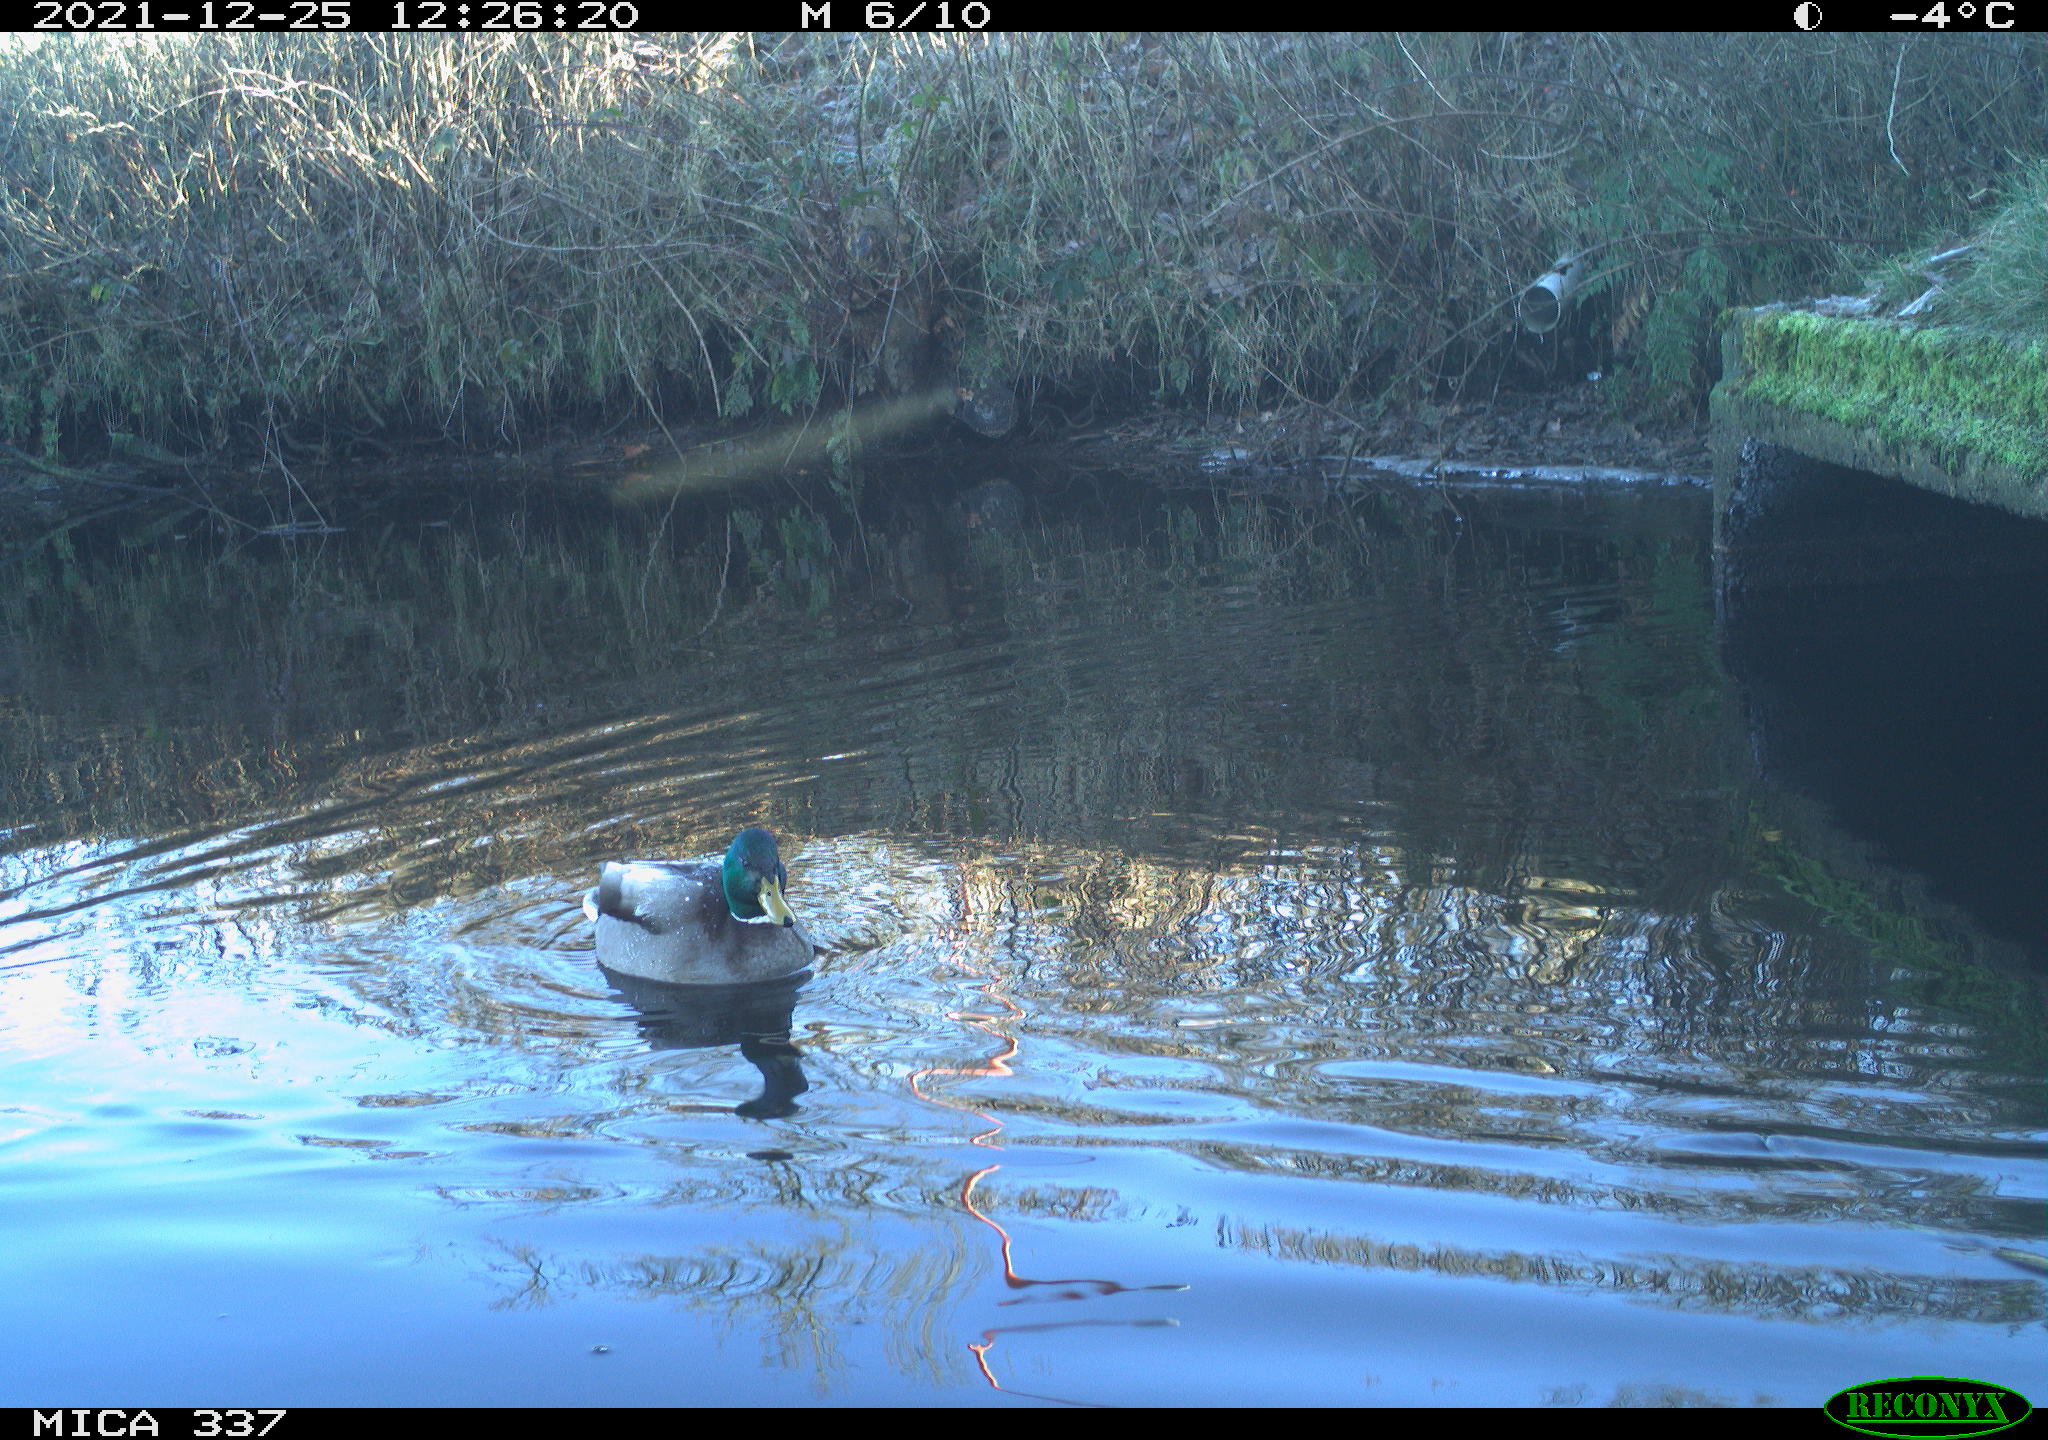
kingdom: Animalia
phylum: Chordata
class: Aves
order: Anseriformes
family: Anatidae
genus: Anas
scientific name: Anas platyrhynchos
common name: Mallard
